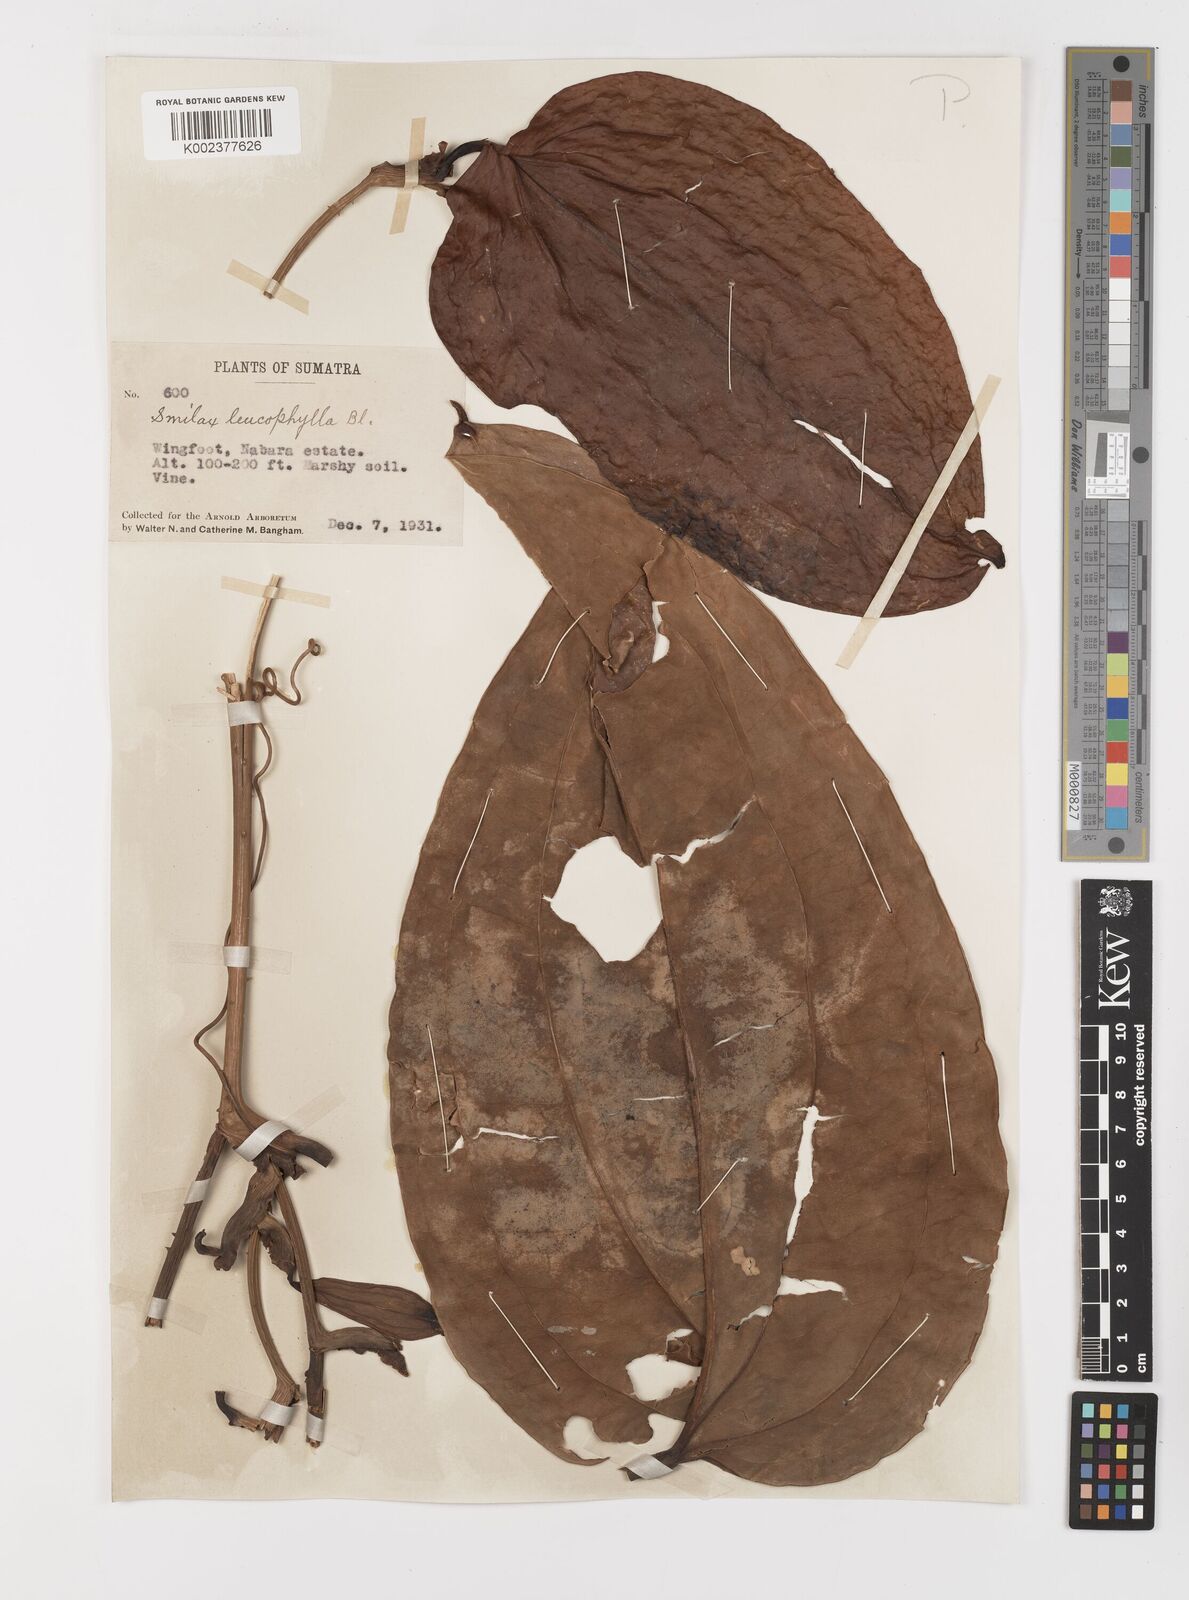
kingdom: Plantae
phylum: Tracheophyta
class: Liliopsida
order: Liliales
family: Smilacaceae
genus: Smilax
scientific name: Smilax leucophylla
